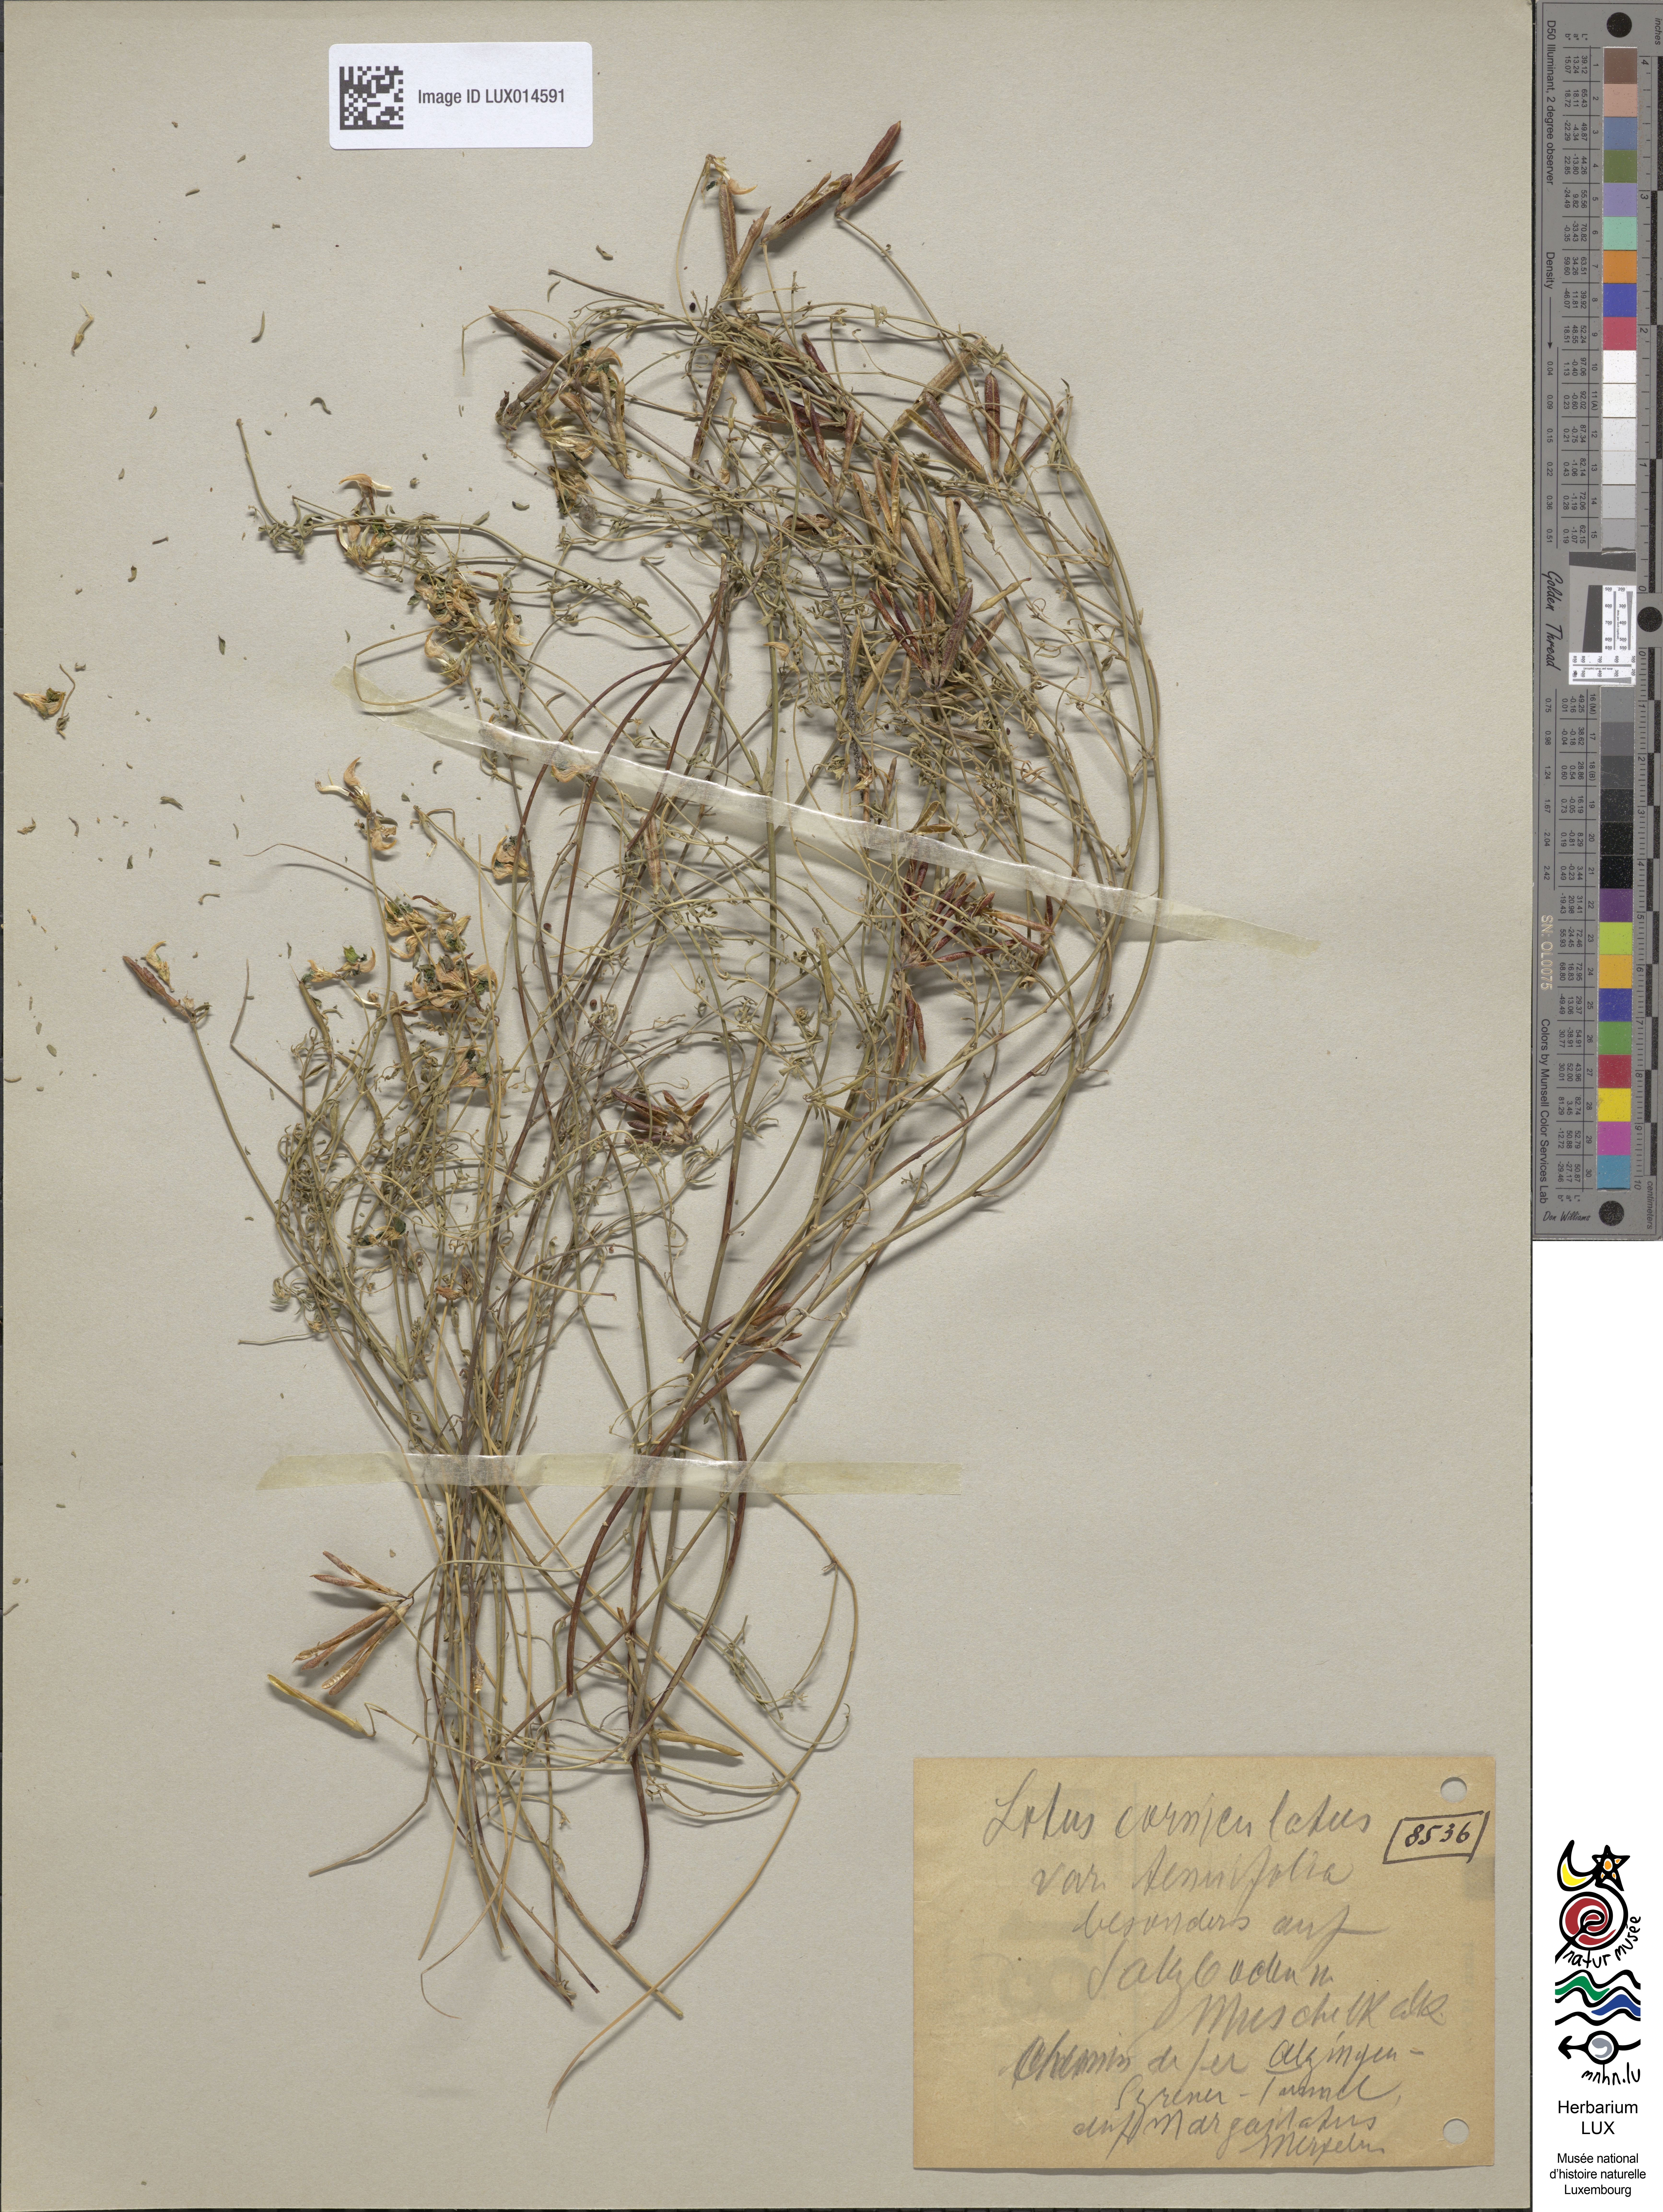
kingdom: Plantae
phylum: Tracheophyta
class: Magnoliopsida
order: Fabales
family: Fabaceae
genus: Lotus
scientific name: Lotus tenuis
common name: Narrow-leaved bird's-foot-trefoil
